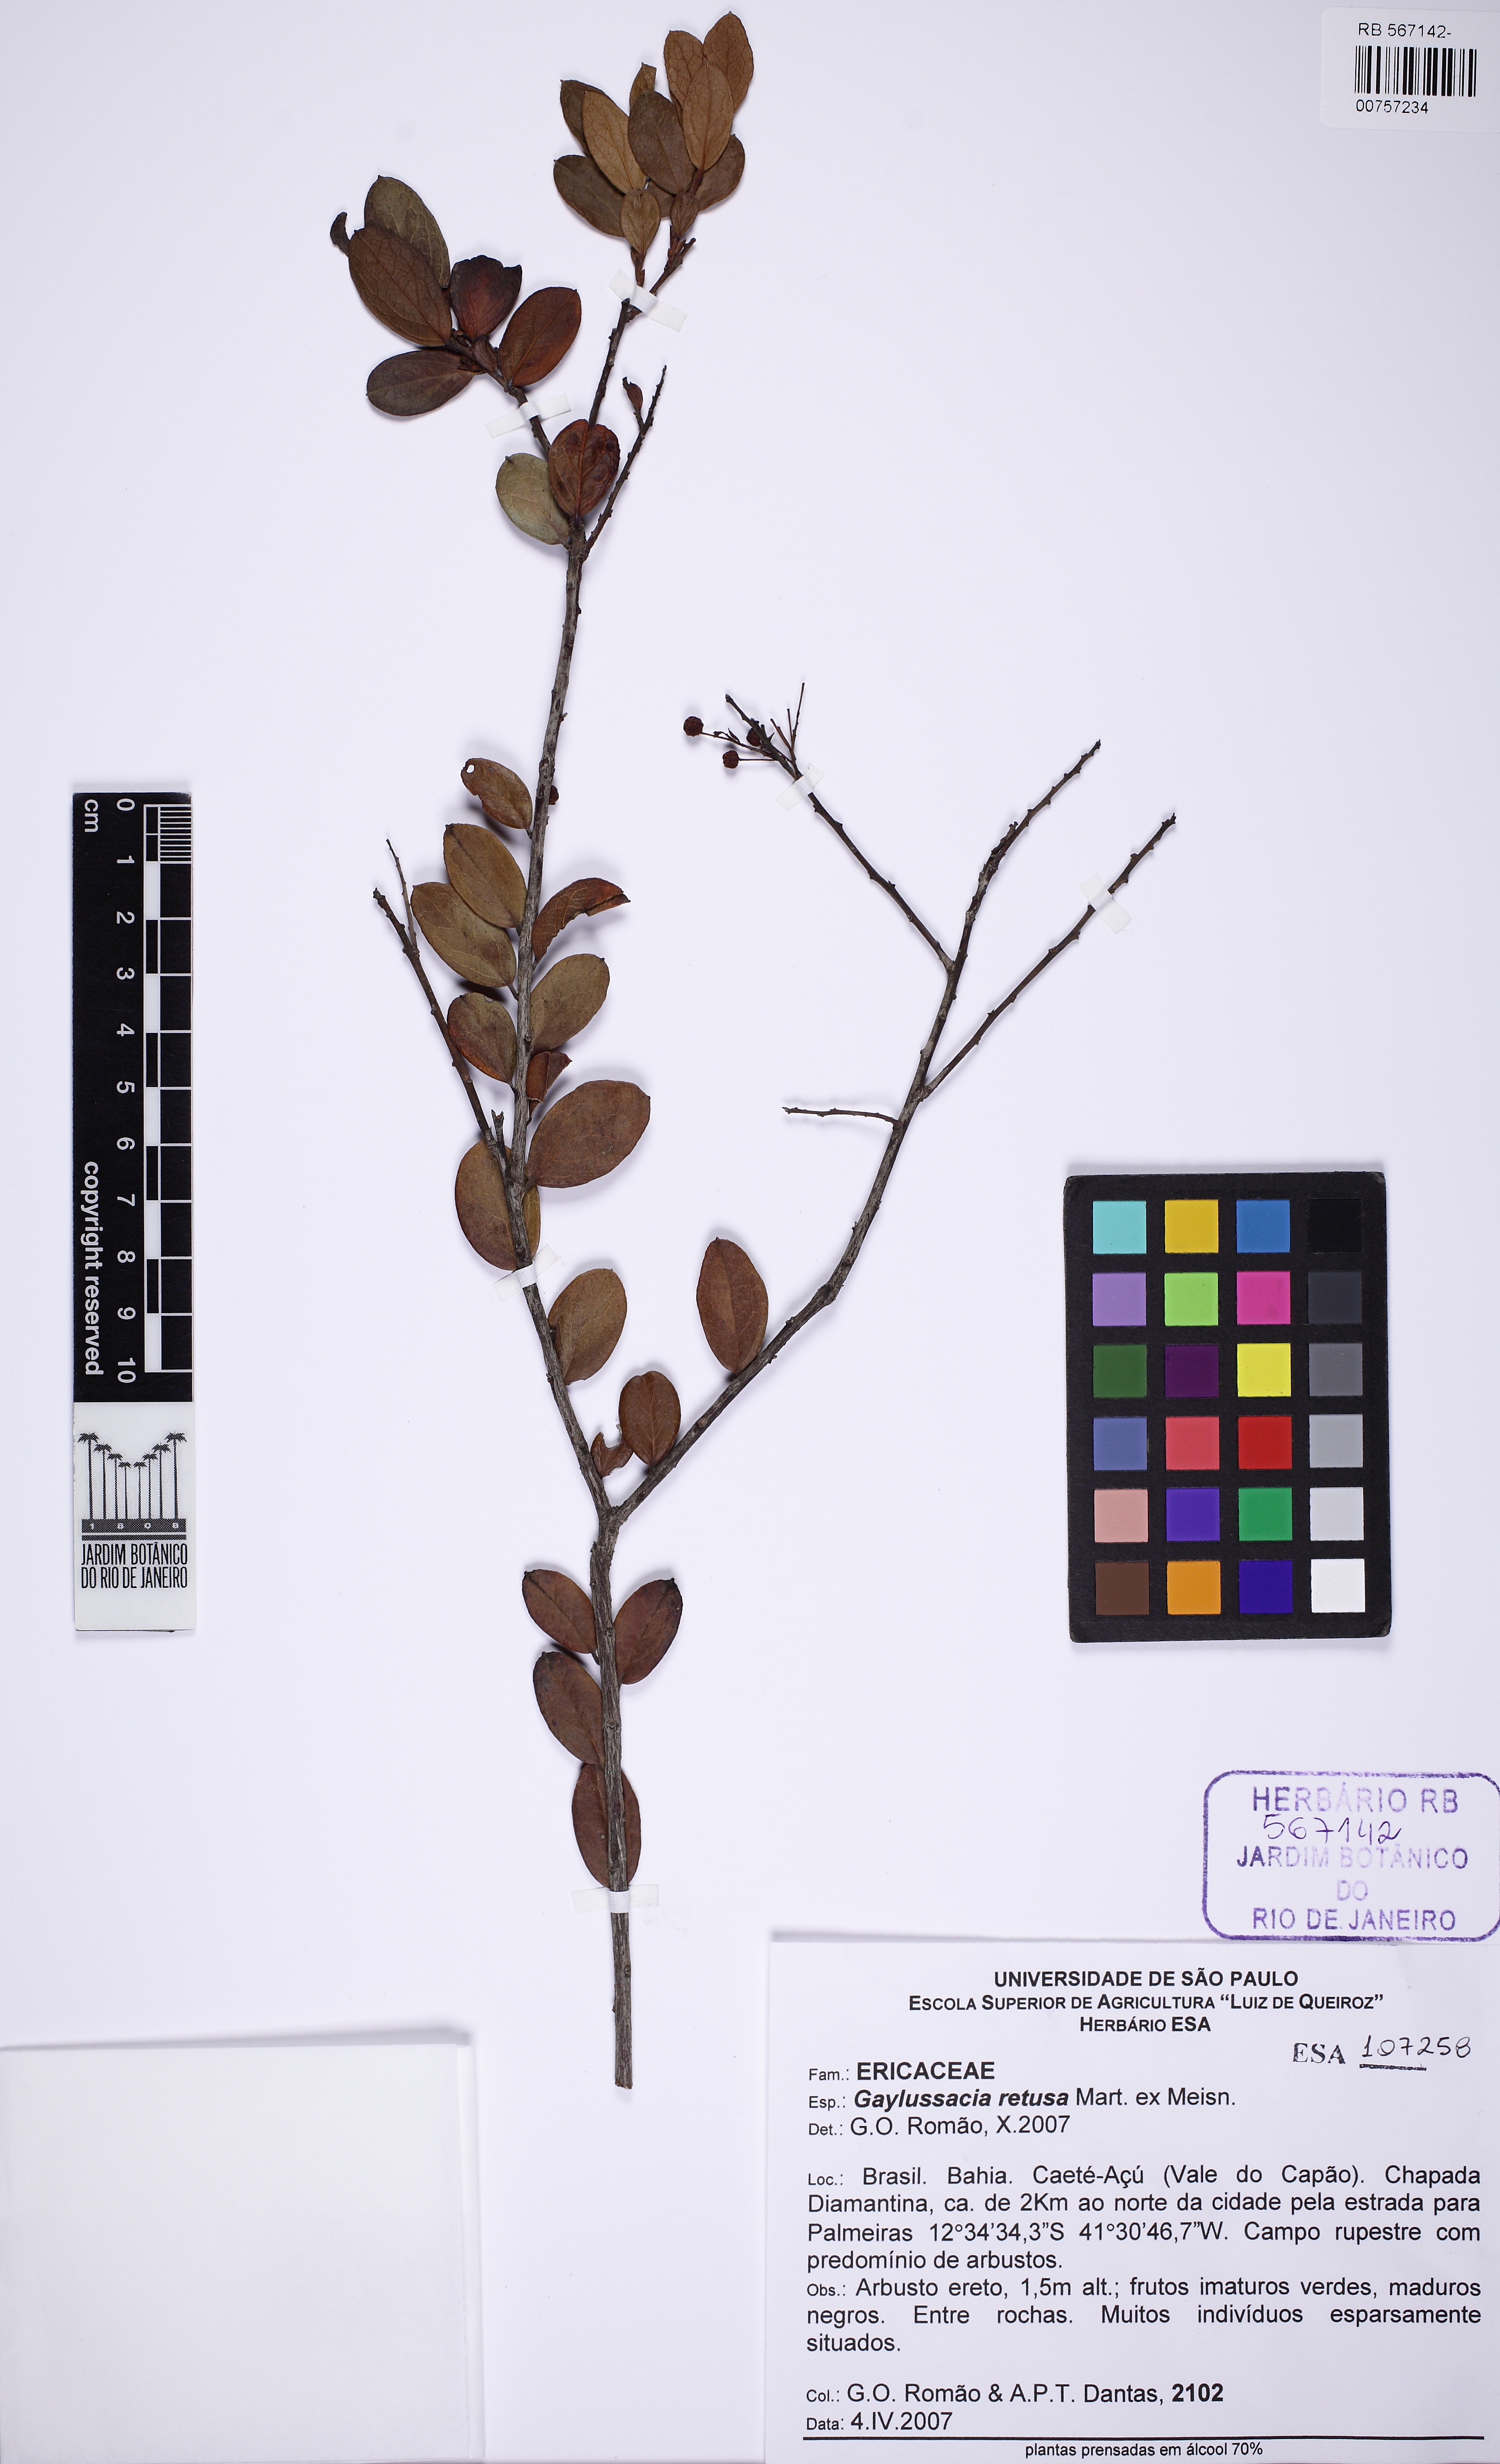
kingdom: Plantae
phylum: Tracheophyta
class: Magnoliopsida
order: Ericales
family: Ericaceae
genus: Gaylussacia
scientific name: Gaylussacia retusa
